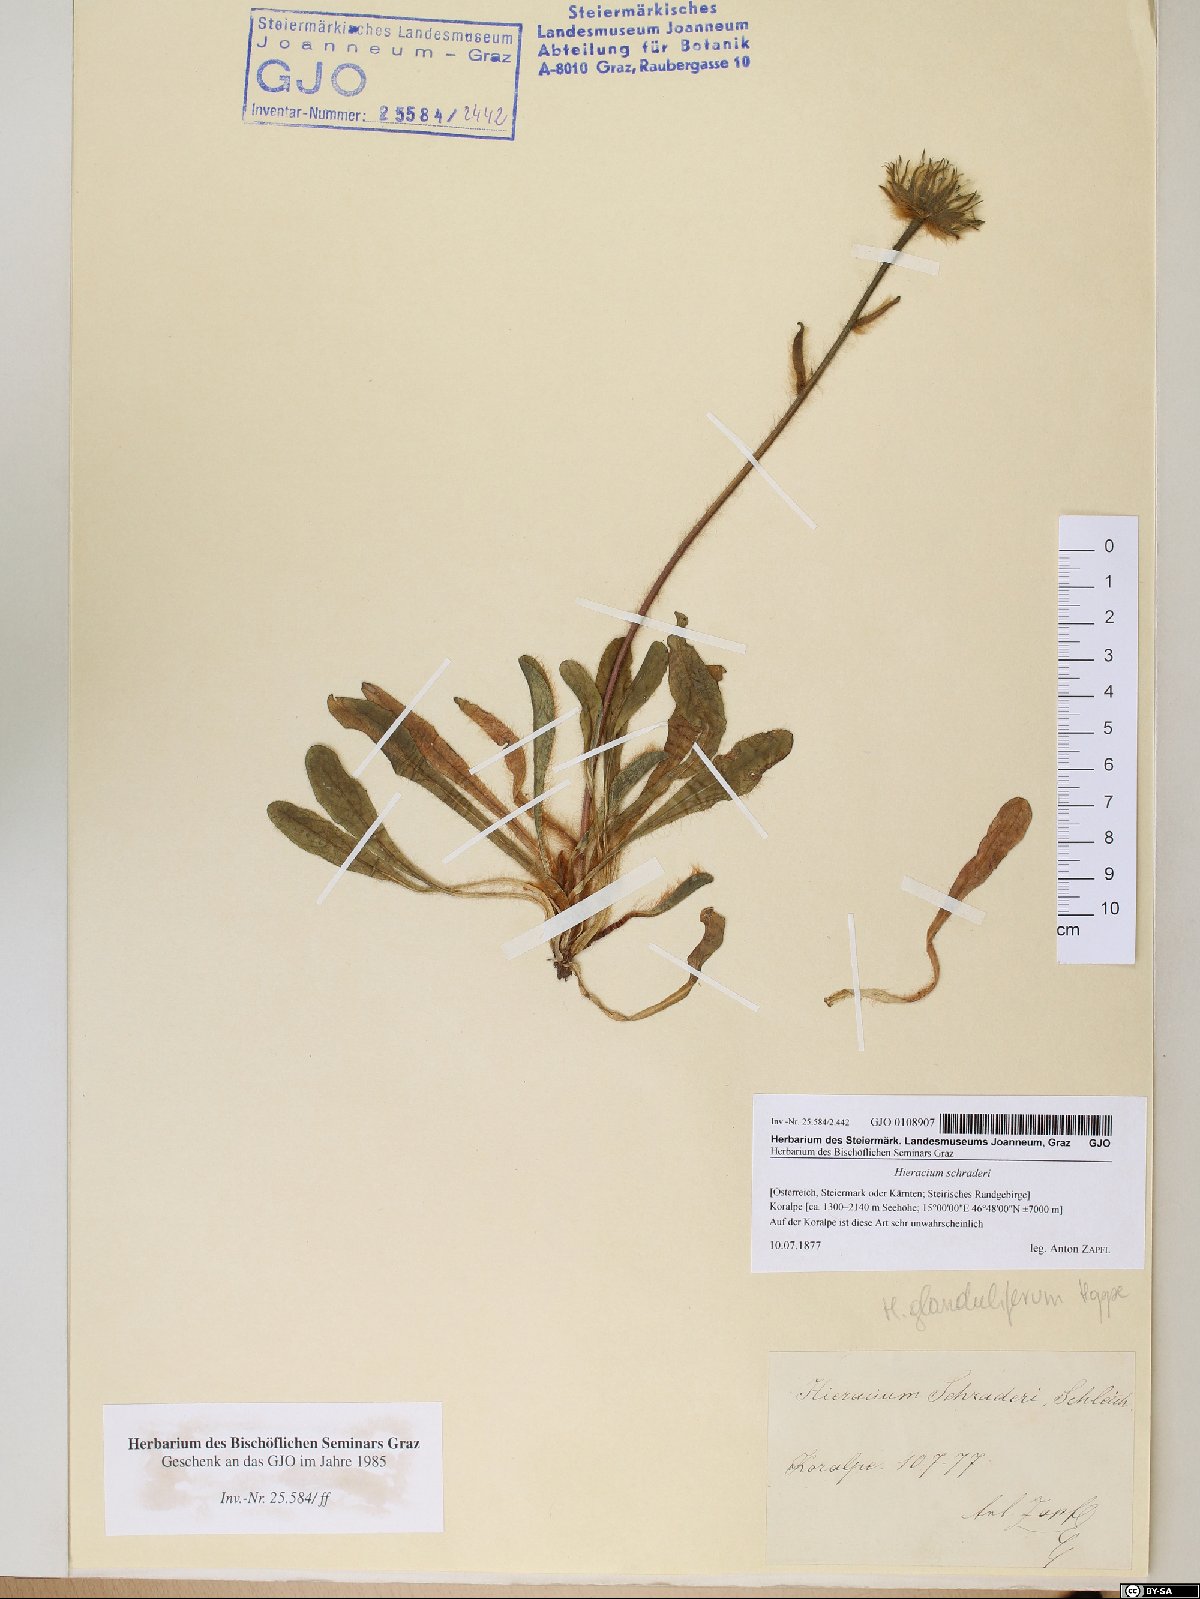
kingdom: Plantae
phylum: Tracheophyta
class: Magnoliopsida
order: Asterales
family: Asteraceae
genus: Hieracium
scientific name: Hieracium schraderi
